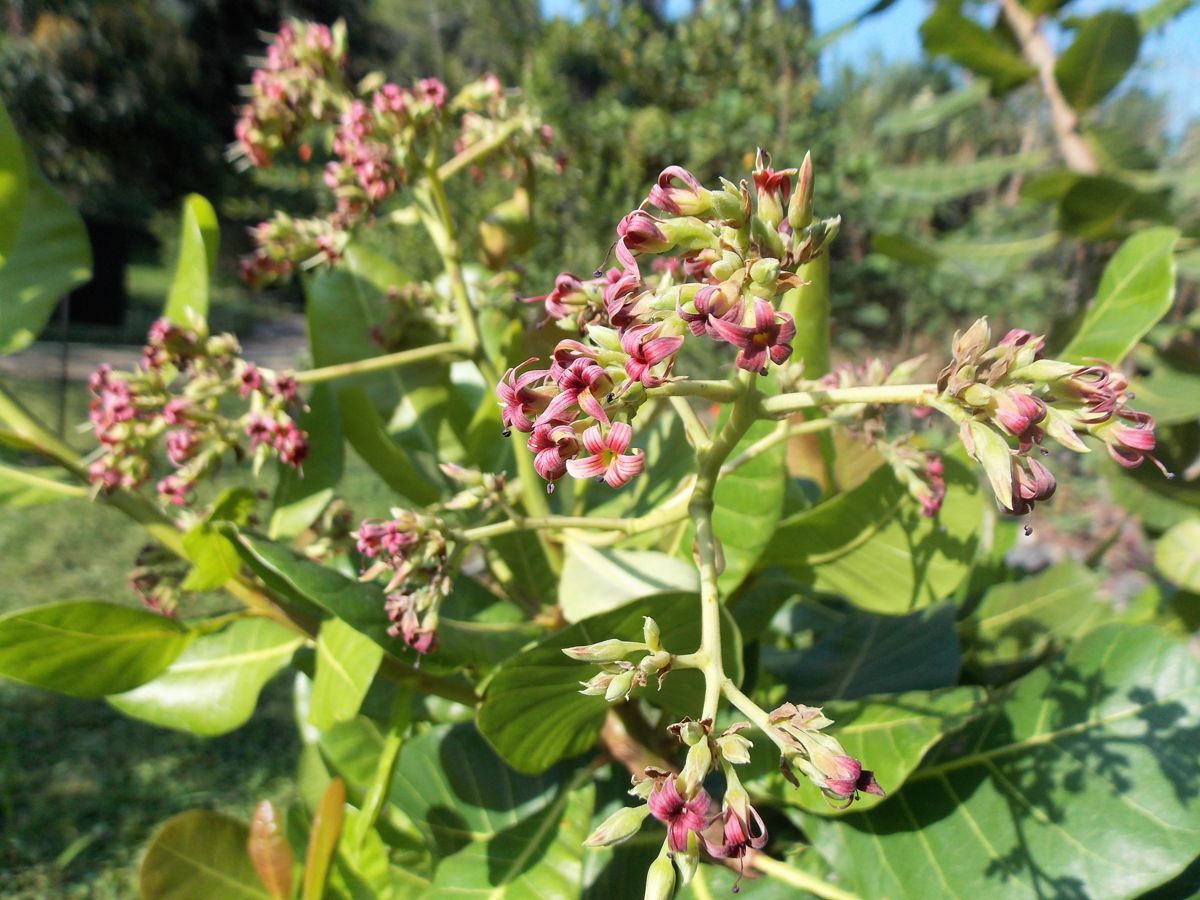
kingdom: Plantae
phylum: Tracheophyta
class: Magnoliopsida
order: Sapindales
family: Anacardiaceae
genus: Anacardium
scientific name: Anacardium occidentale
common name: Cashew
